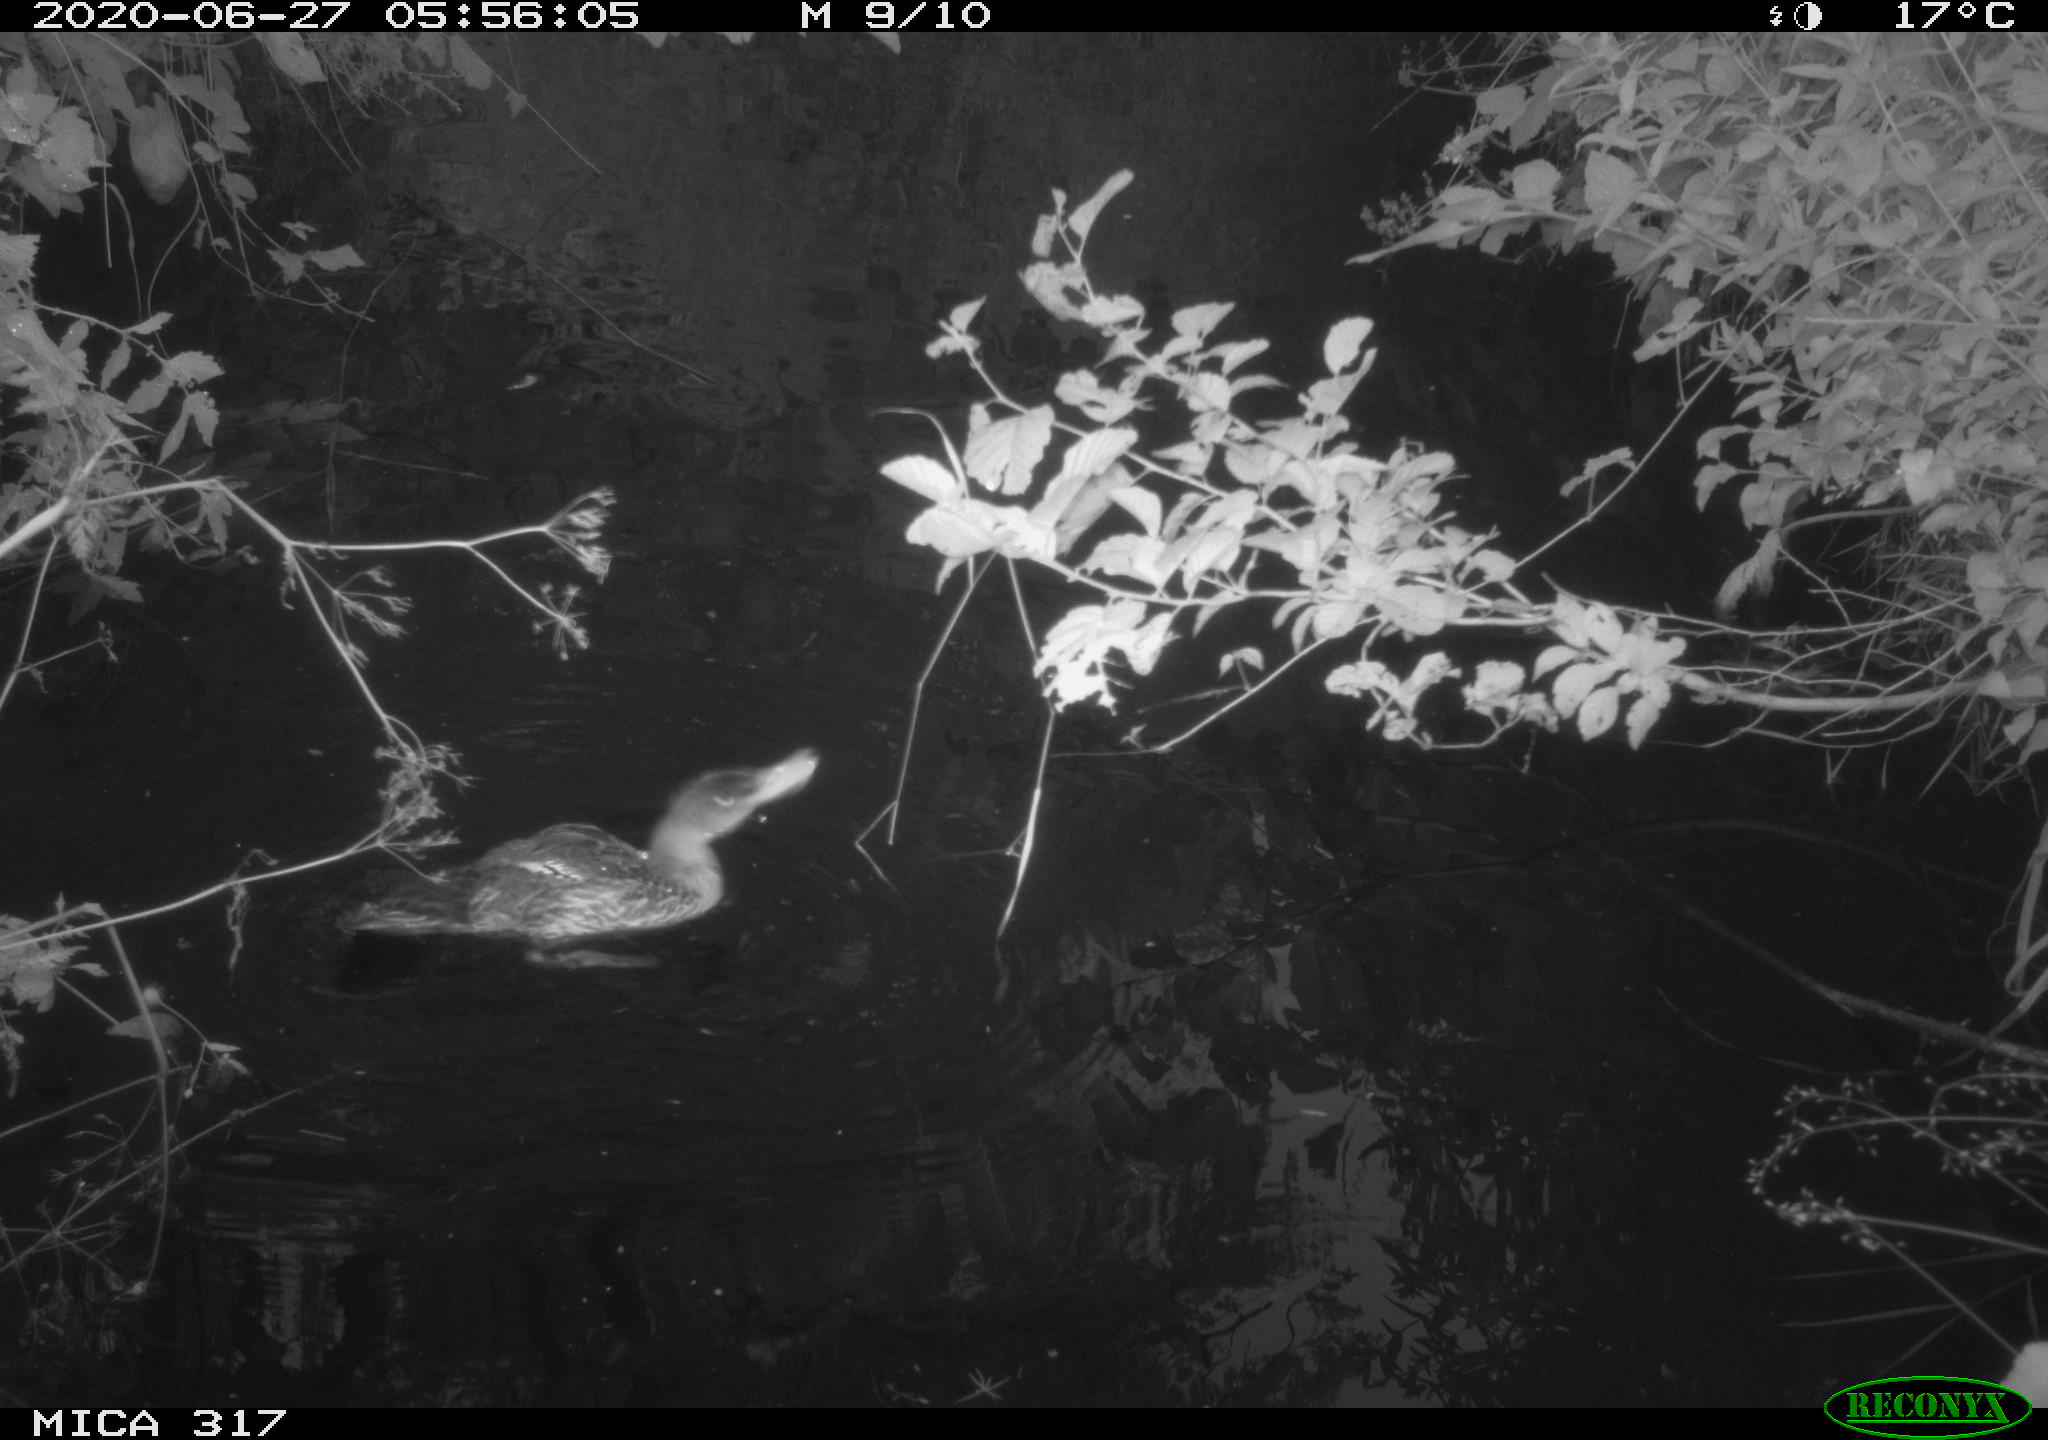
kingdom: Animalia
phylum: Chordata
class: Aves
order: Anseriformes
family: Anatidae
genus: Anas
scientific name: Anas platyrhynchos
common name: Mallard
